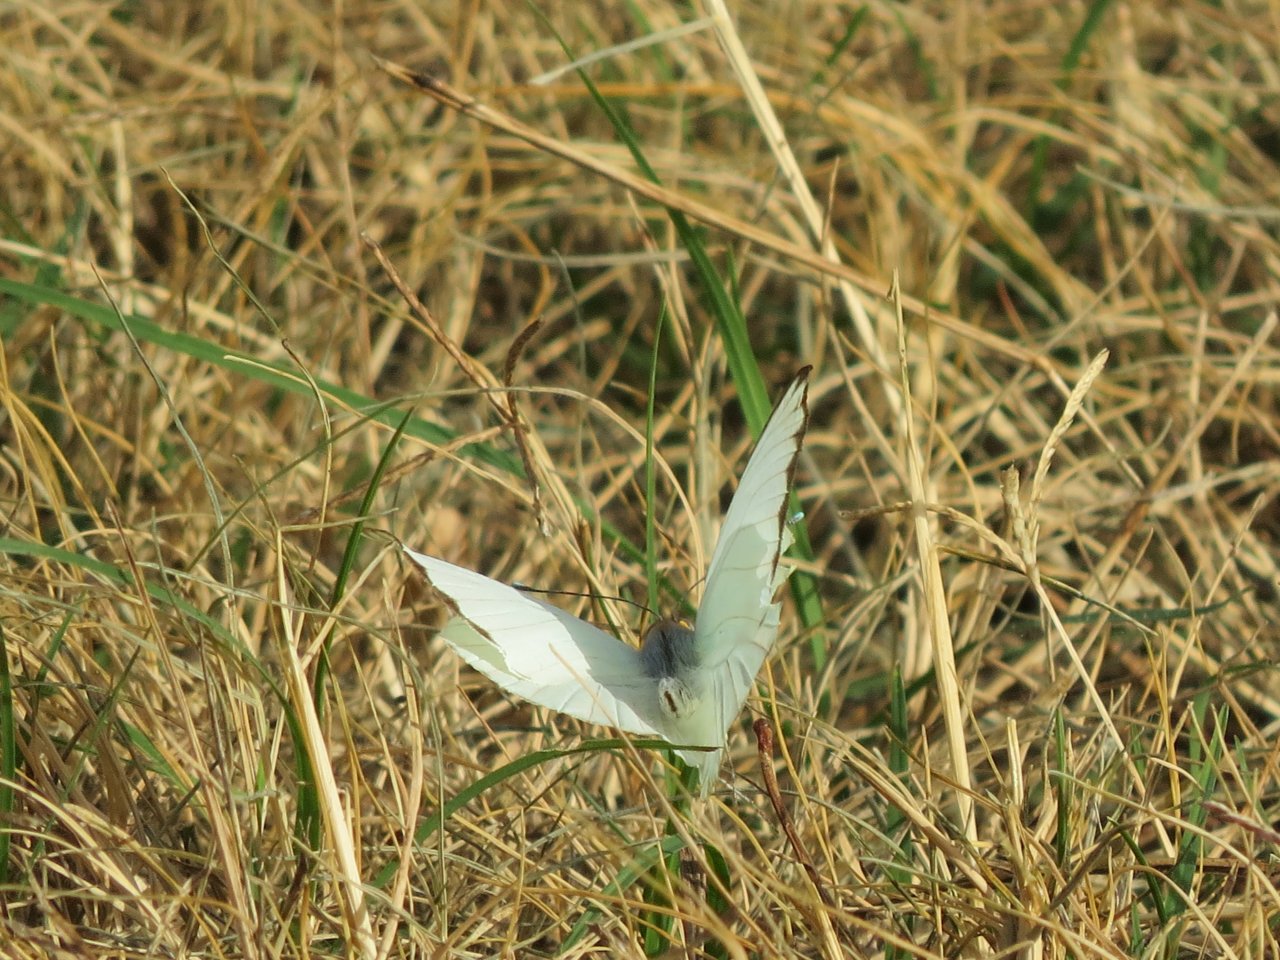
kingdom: Animalia
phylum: Arthropoda
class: Insecta
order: Lepidoptera
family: Pieridae
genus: Ascia
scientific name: Ascia monuste
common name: Great Southern White
